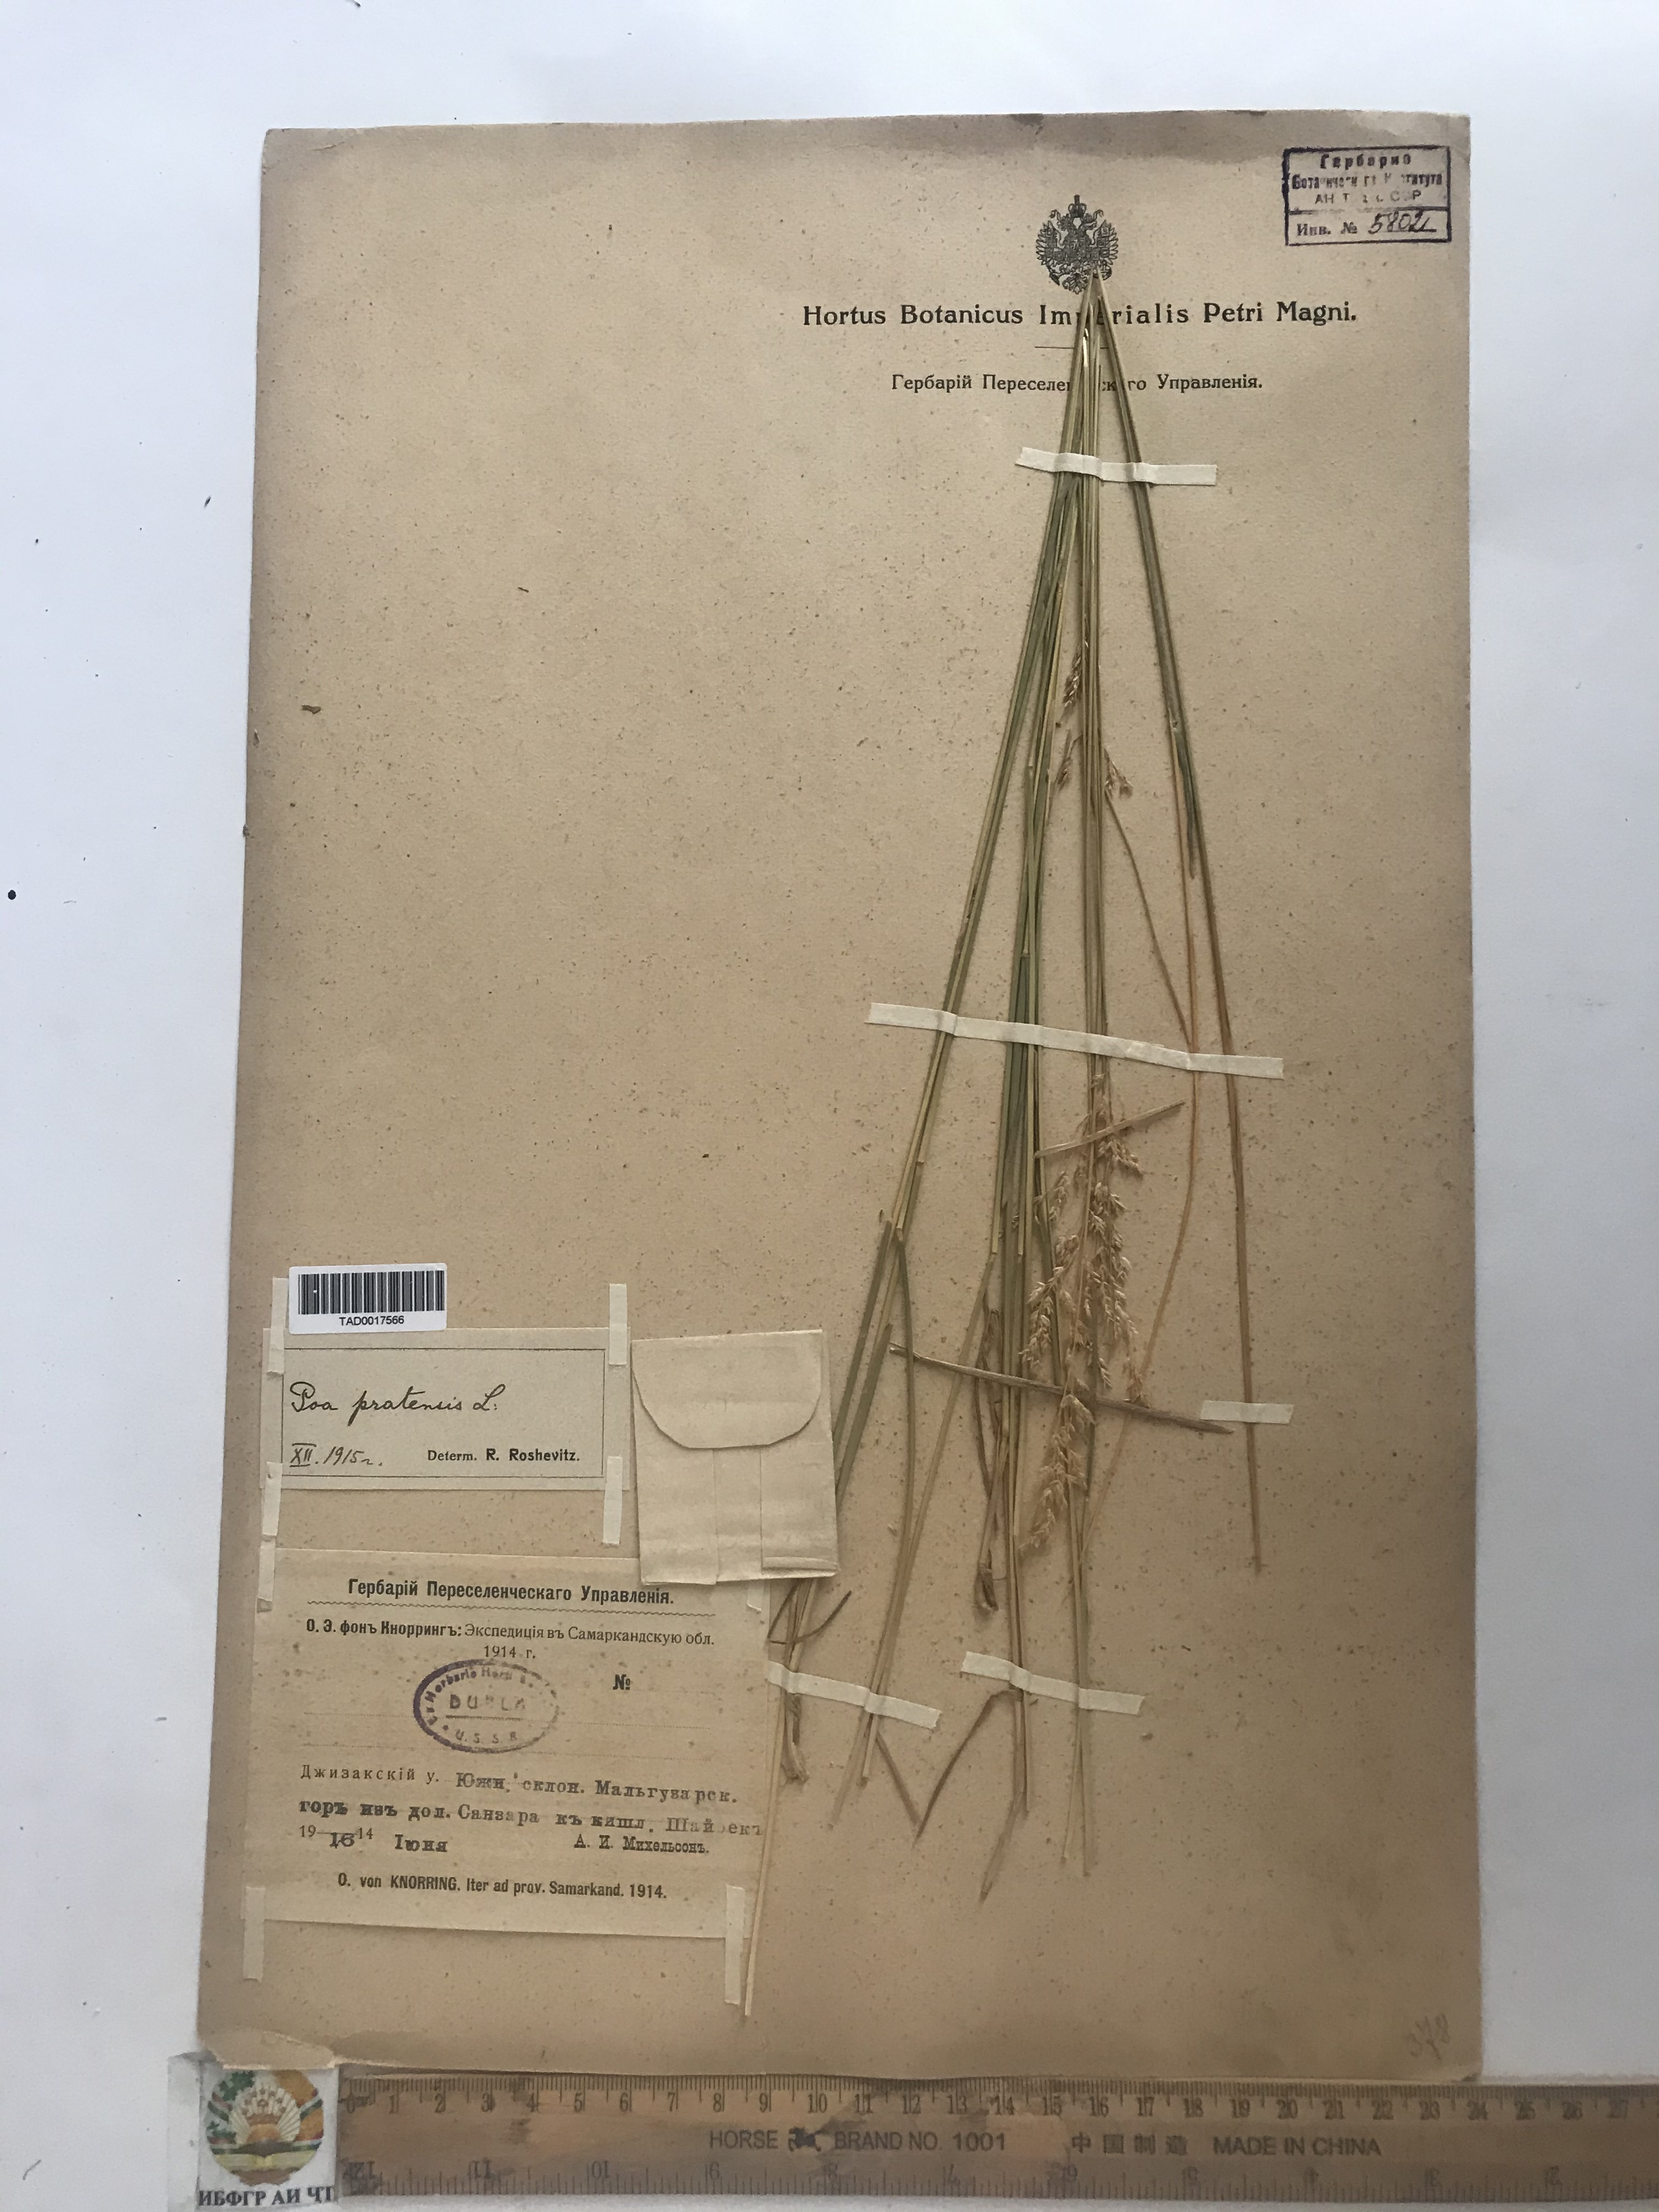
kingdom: Plantae
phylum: Tracheophyta
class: Liliopsida
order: Poales
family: Poaceae
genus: Poa
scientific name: Poa pratensis
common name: Kentucky bluegrass
